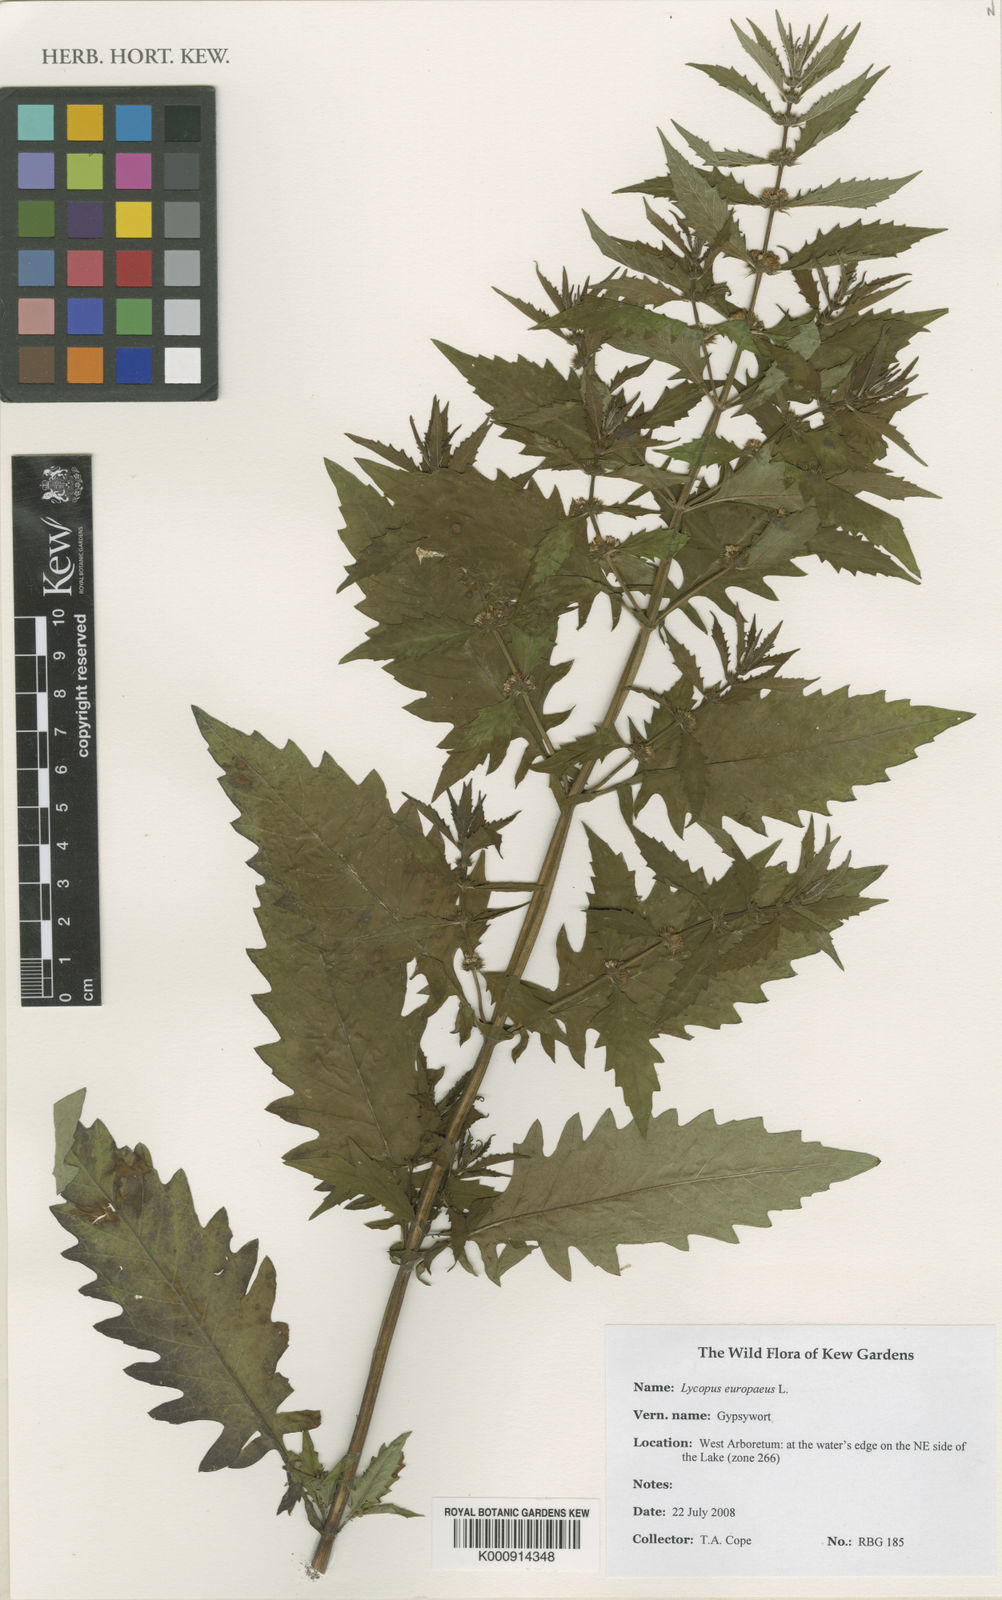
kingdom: Plantae
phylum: Tracheophyta
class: Magnoliopsida
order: Lamiales
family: Lamiaceae
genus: Lycopus
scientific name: Lycopus europaeus
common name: European bugleweed
